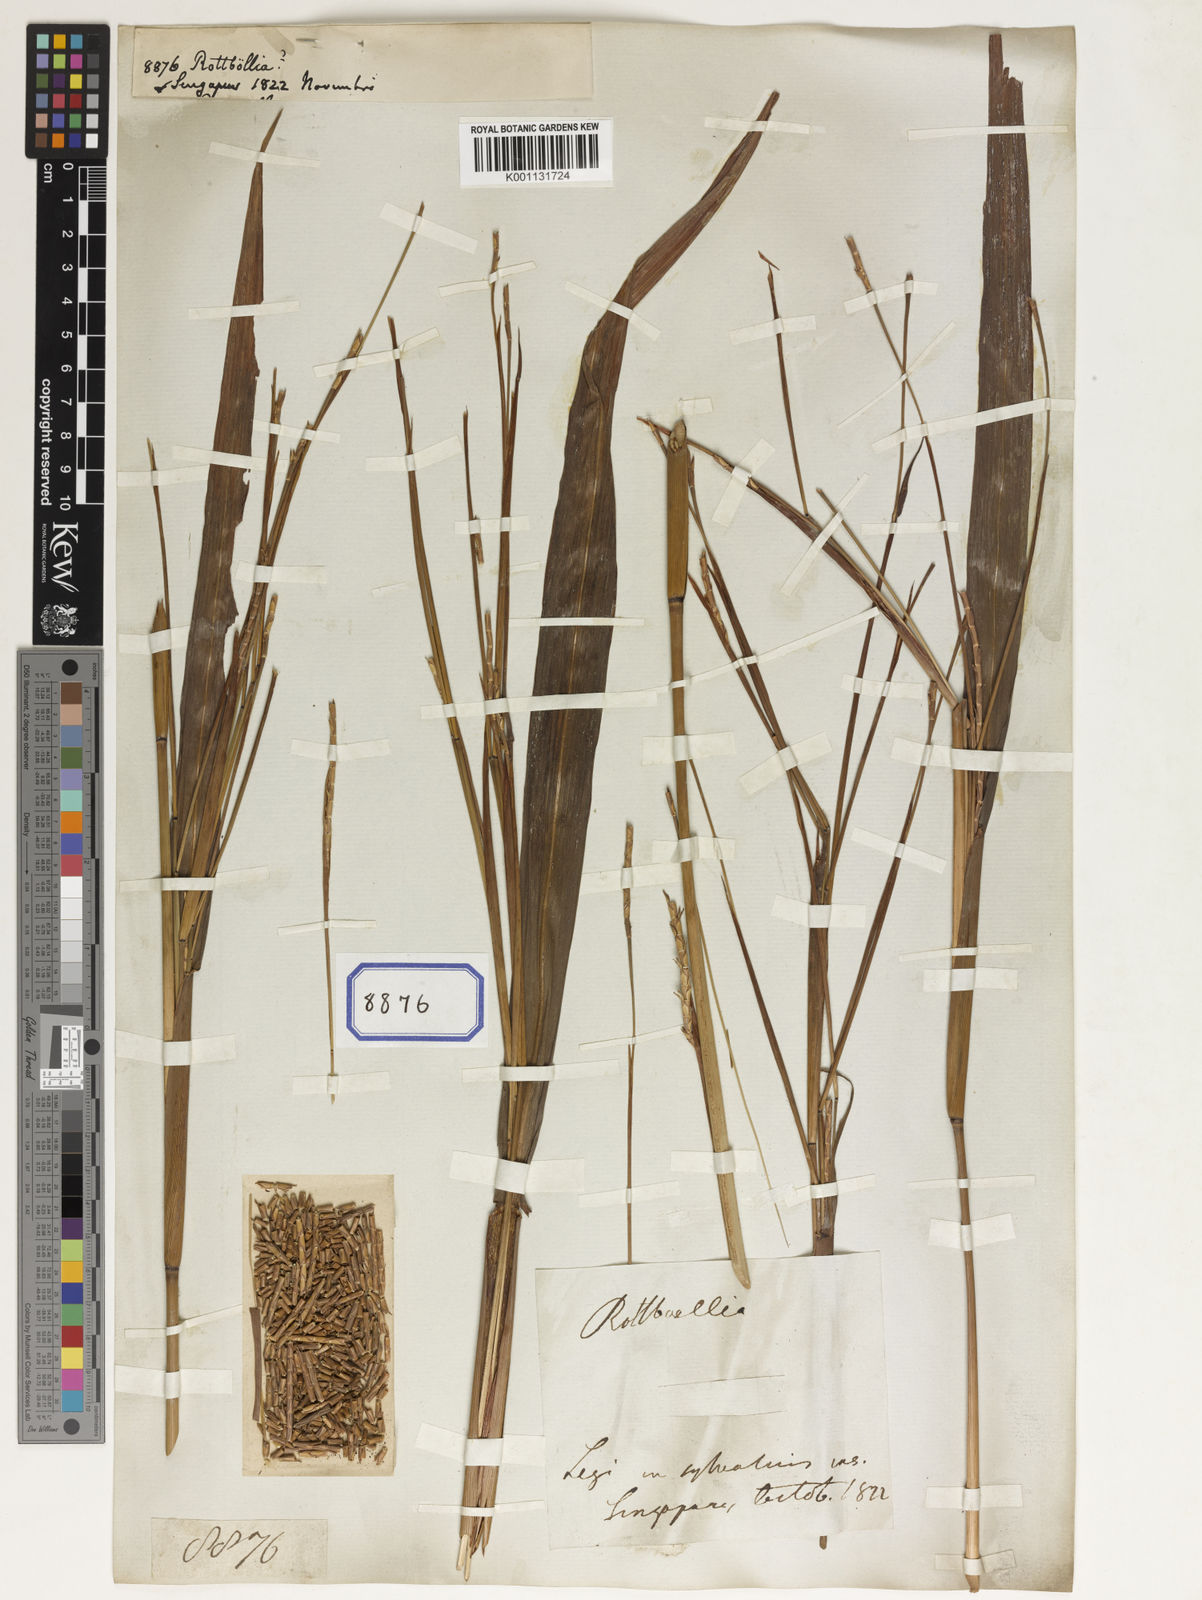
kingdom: Plantae
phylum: Tracheophyta
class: Liliopsida
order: Poales
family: Poaceae
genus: Rottboellia
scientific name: Rottboellia
